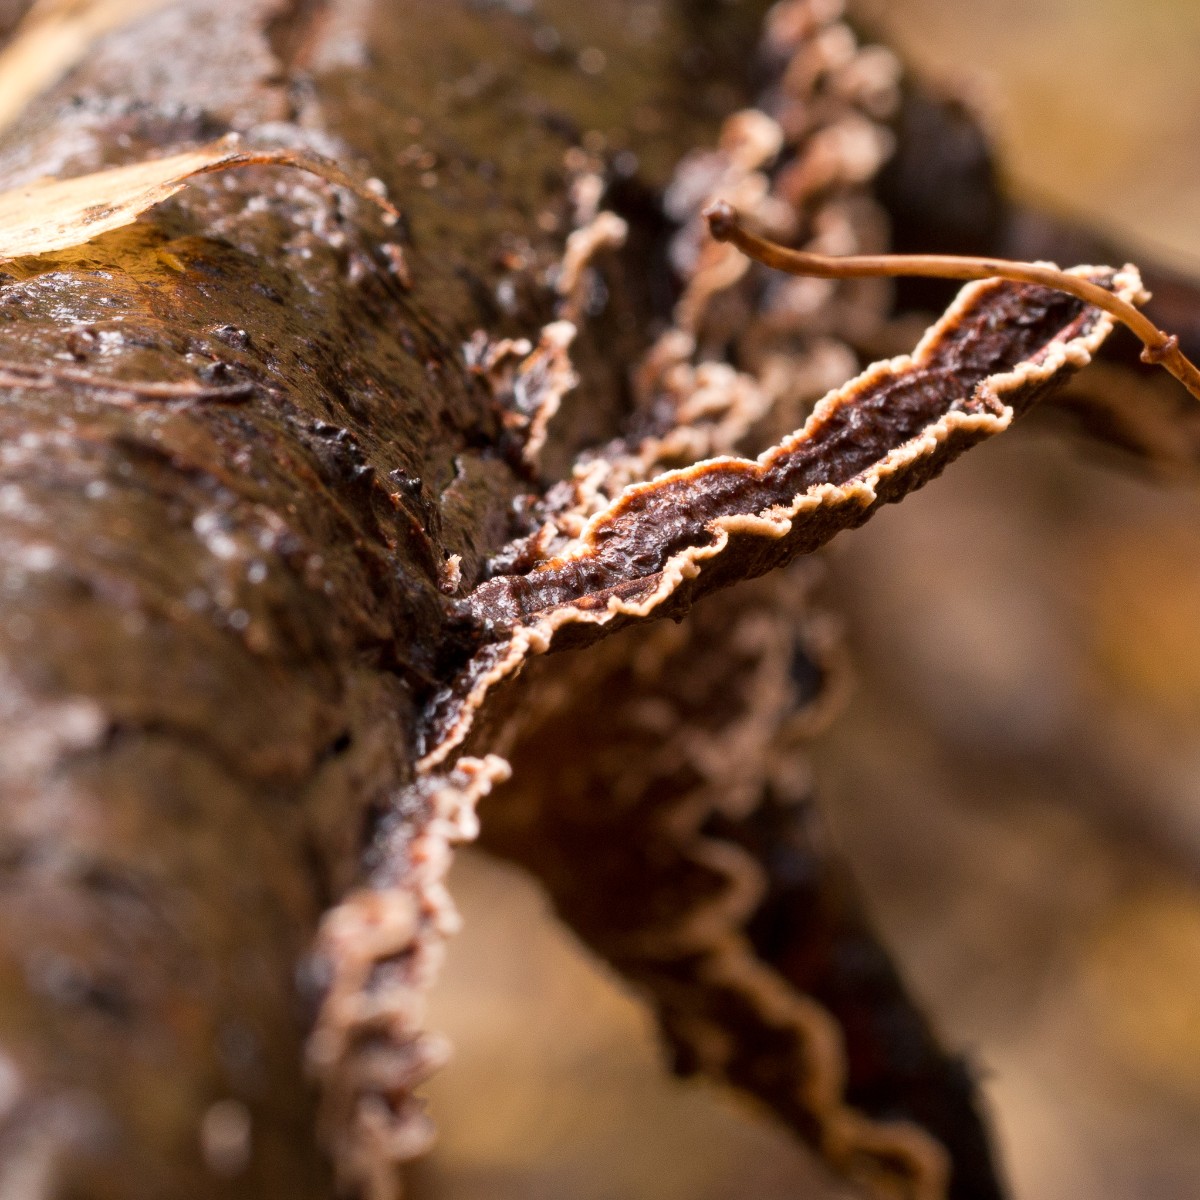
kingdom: Fungi
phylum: Basidiomycota
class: Agaricomycetes
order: Hymenochaetales
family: Hymenochaetaceae
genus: Hydnoporia
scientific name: Hydnoporia tabacina
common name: tobaksbrun ruslædersvamp
